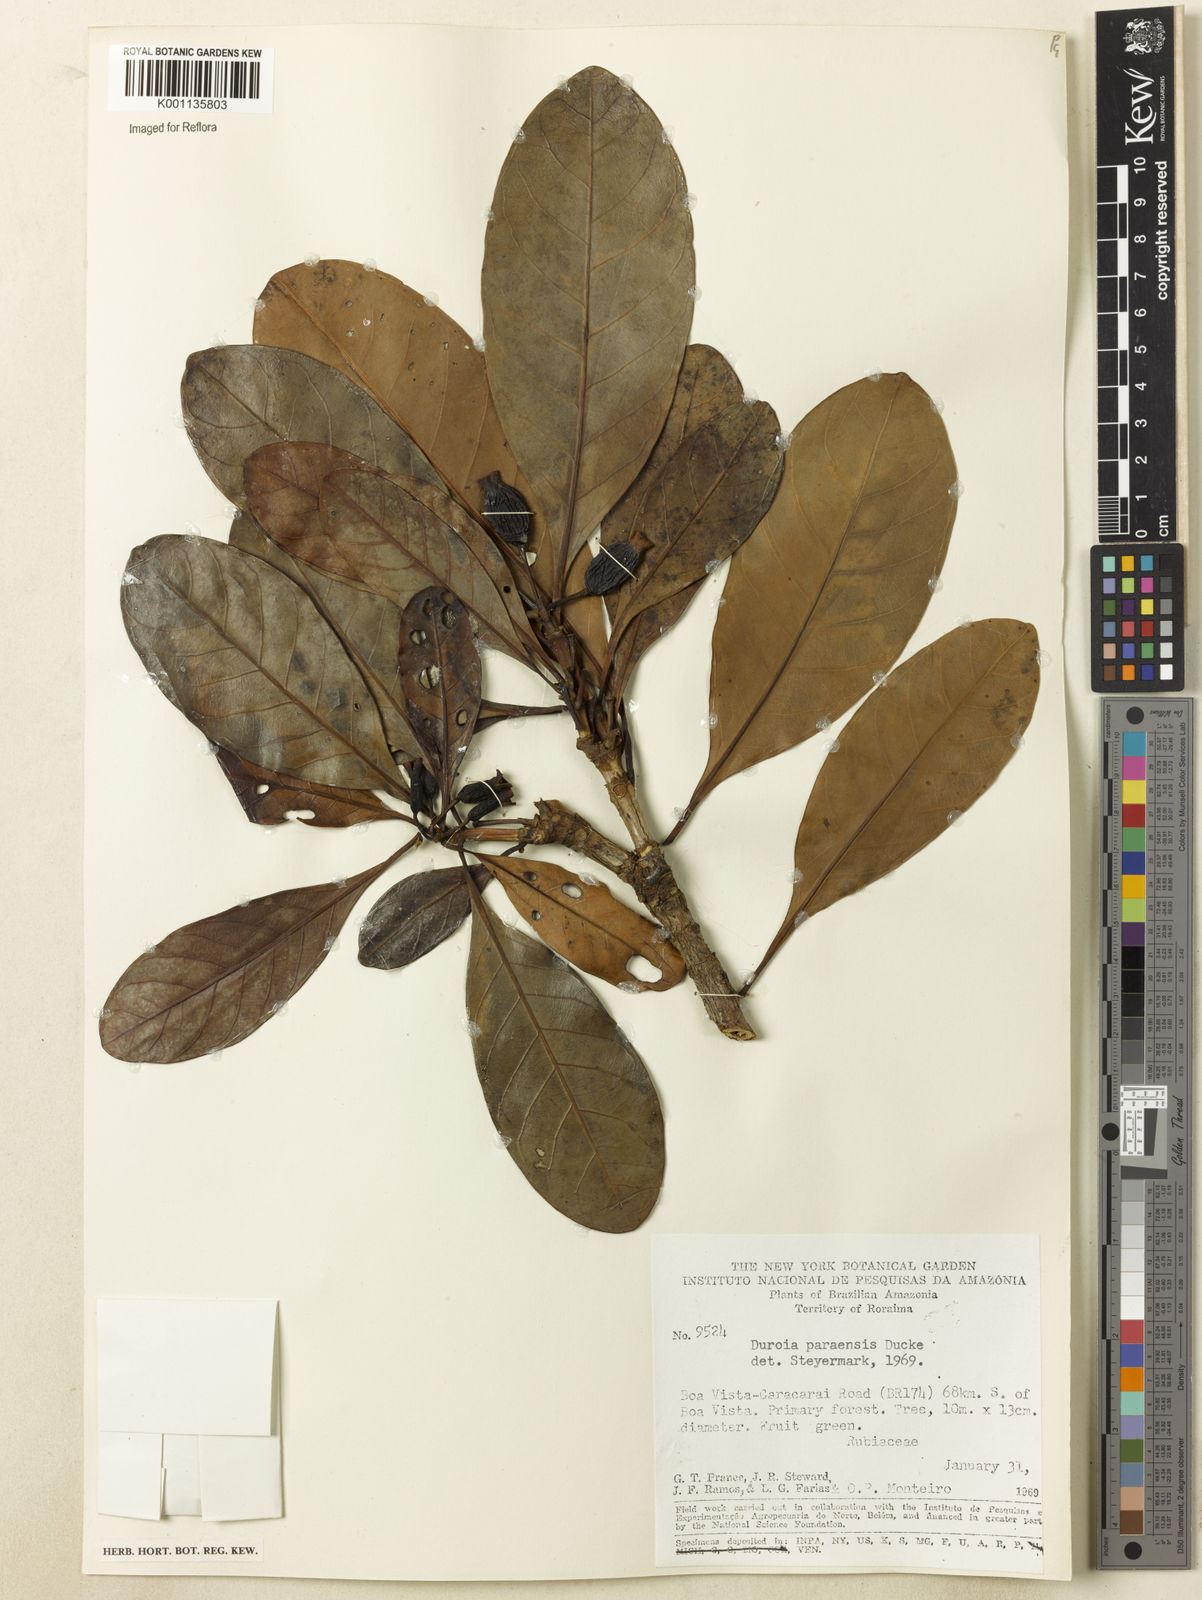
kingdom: Plantae
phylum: Tracheophyta
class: Magnoliopsida
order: Gentianales
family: Rubiaceae
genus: Duroia
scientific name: Duroia paraensis
